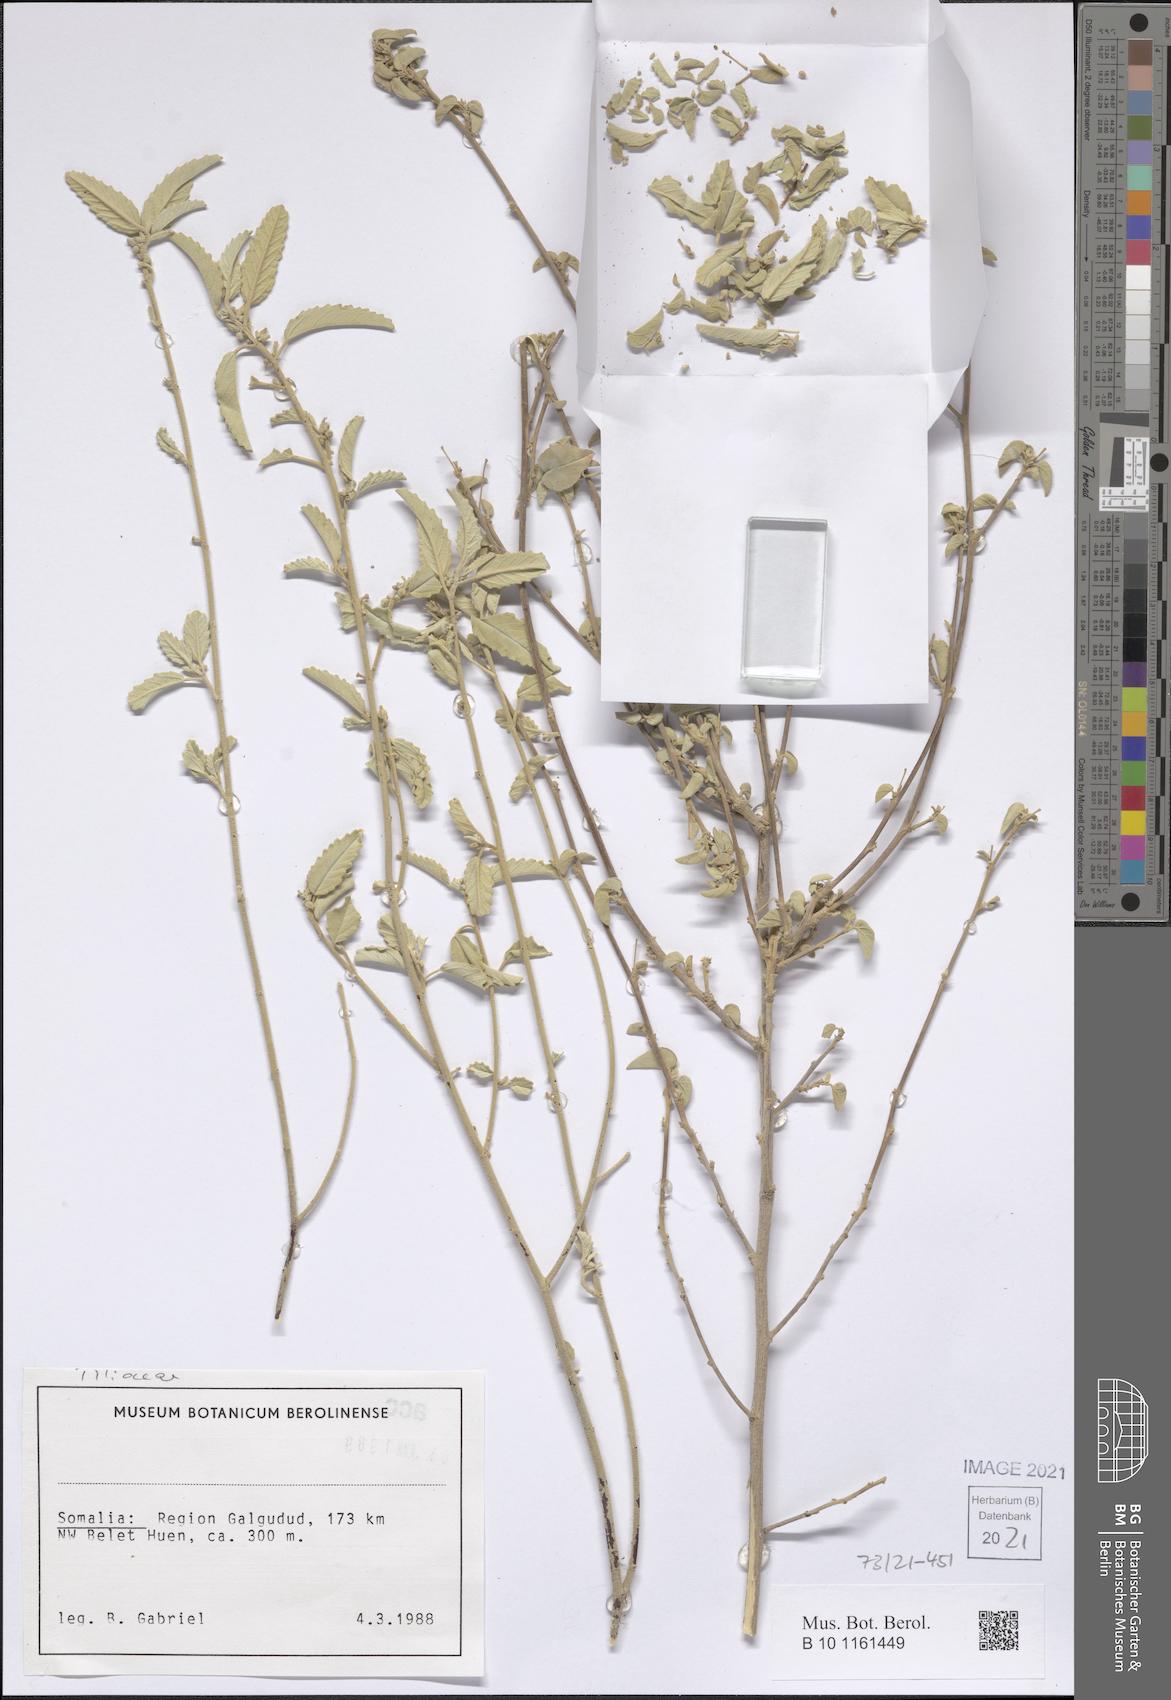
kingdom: Plantae
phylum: Tracheophyta
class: Magnoliopsida
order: Malvales
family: Malvaceae
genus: Corchorus
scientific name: Corchorus cinerascens
